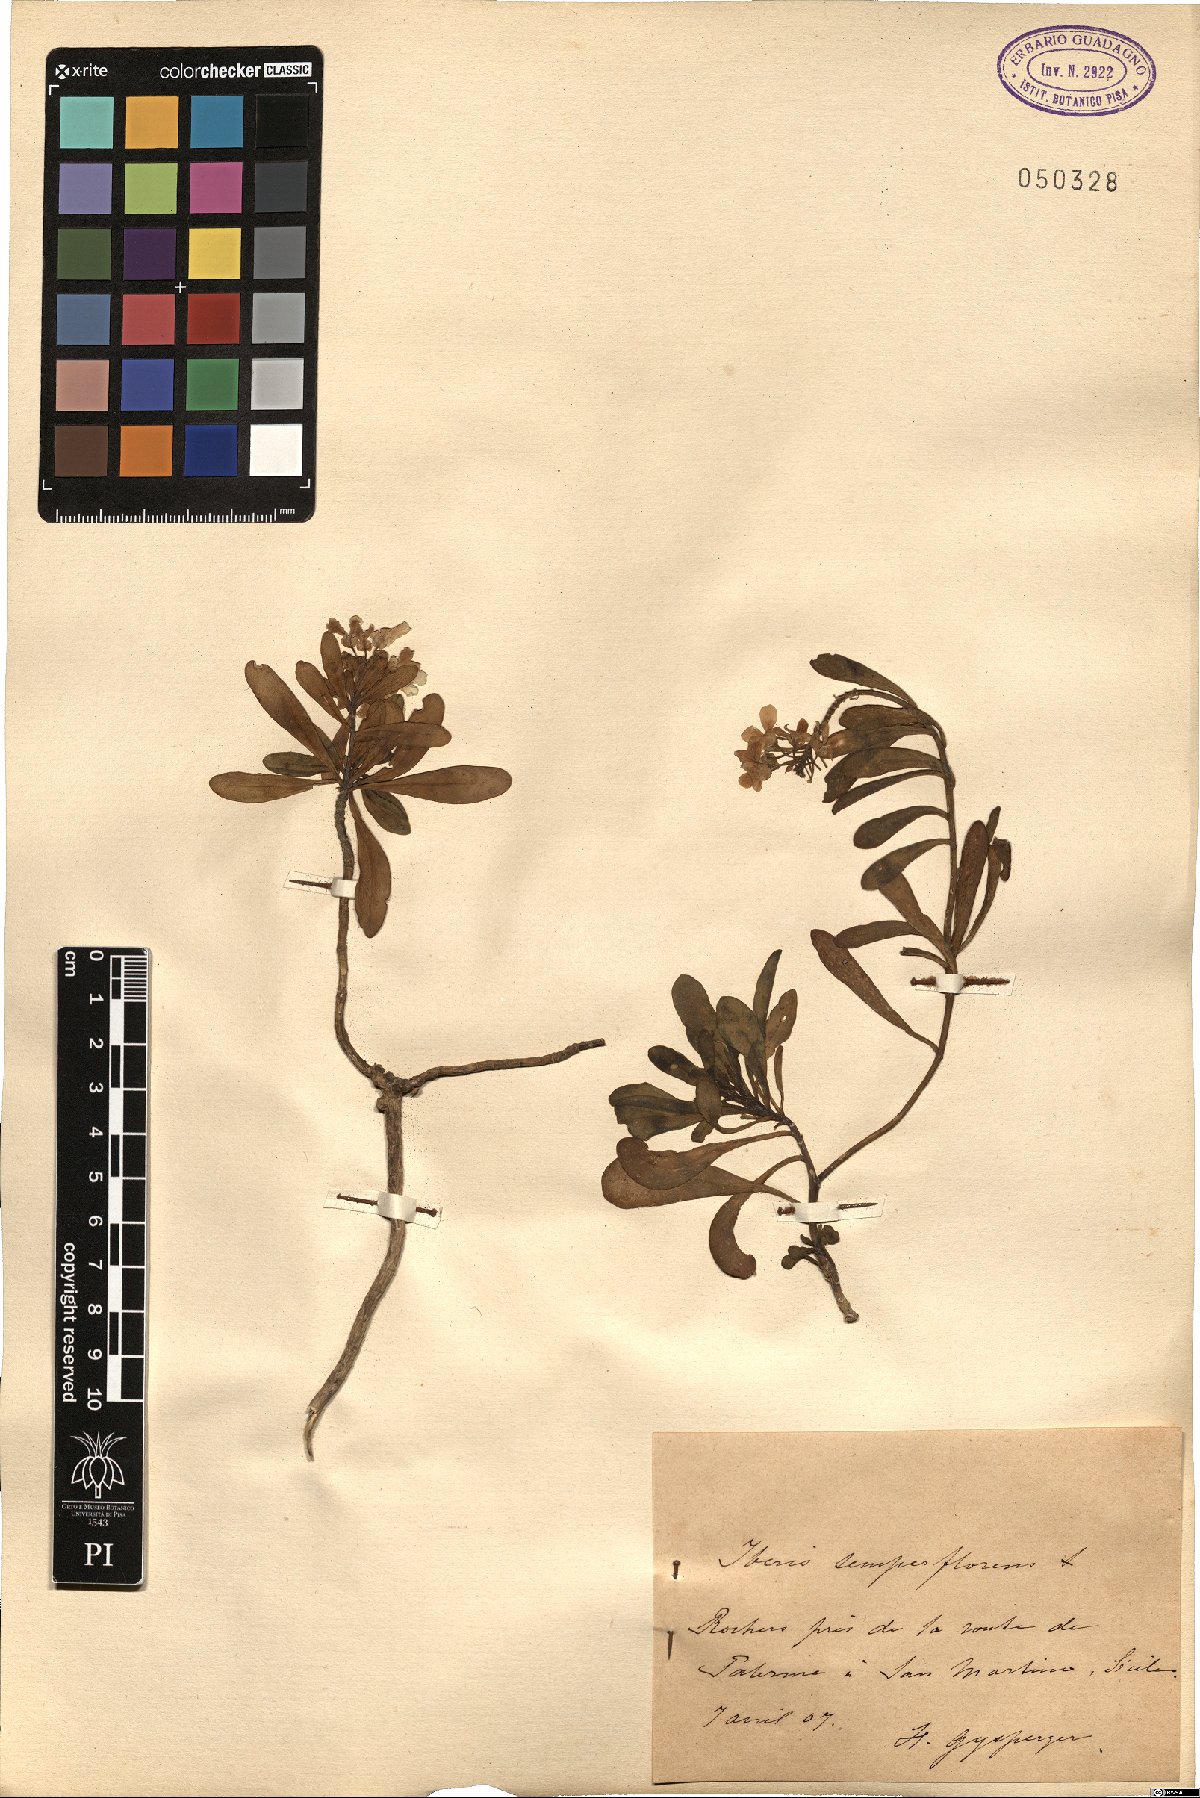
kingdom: Plantae
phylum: Tracheophyta
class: Magnoliopsida
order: Brassicales
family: Brassicaceae
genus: Iberis
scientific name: Iberis semperflorens
